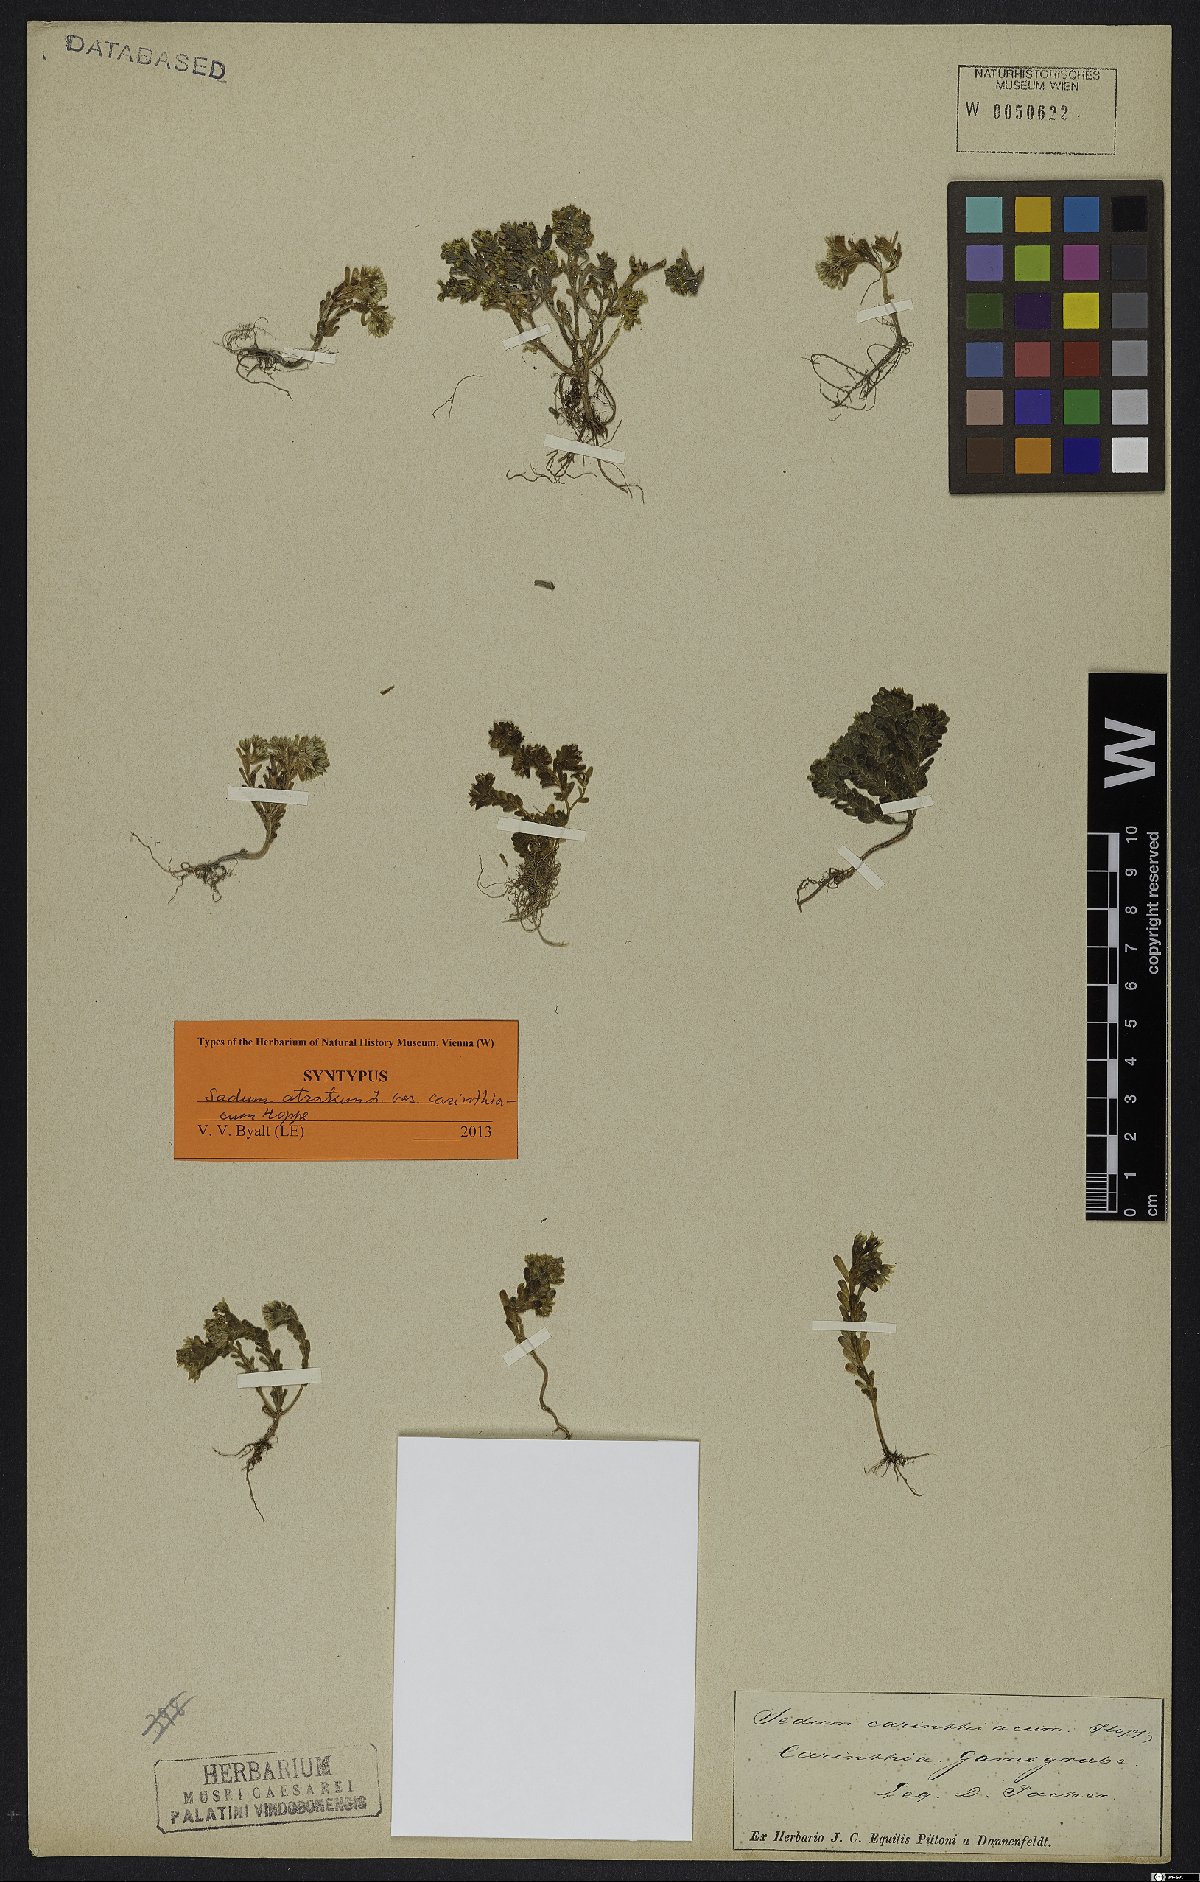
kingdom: Plantae
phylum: Tracheophyta
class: Magnoliopsida
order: Saxifragales
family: Crassulaceae
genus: Sedum
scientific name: Sedum atratum
